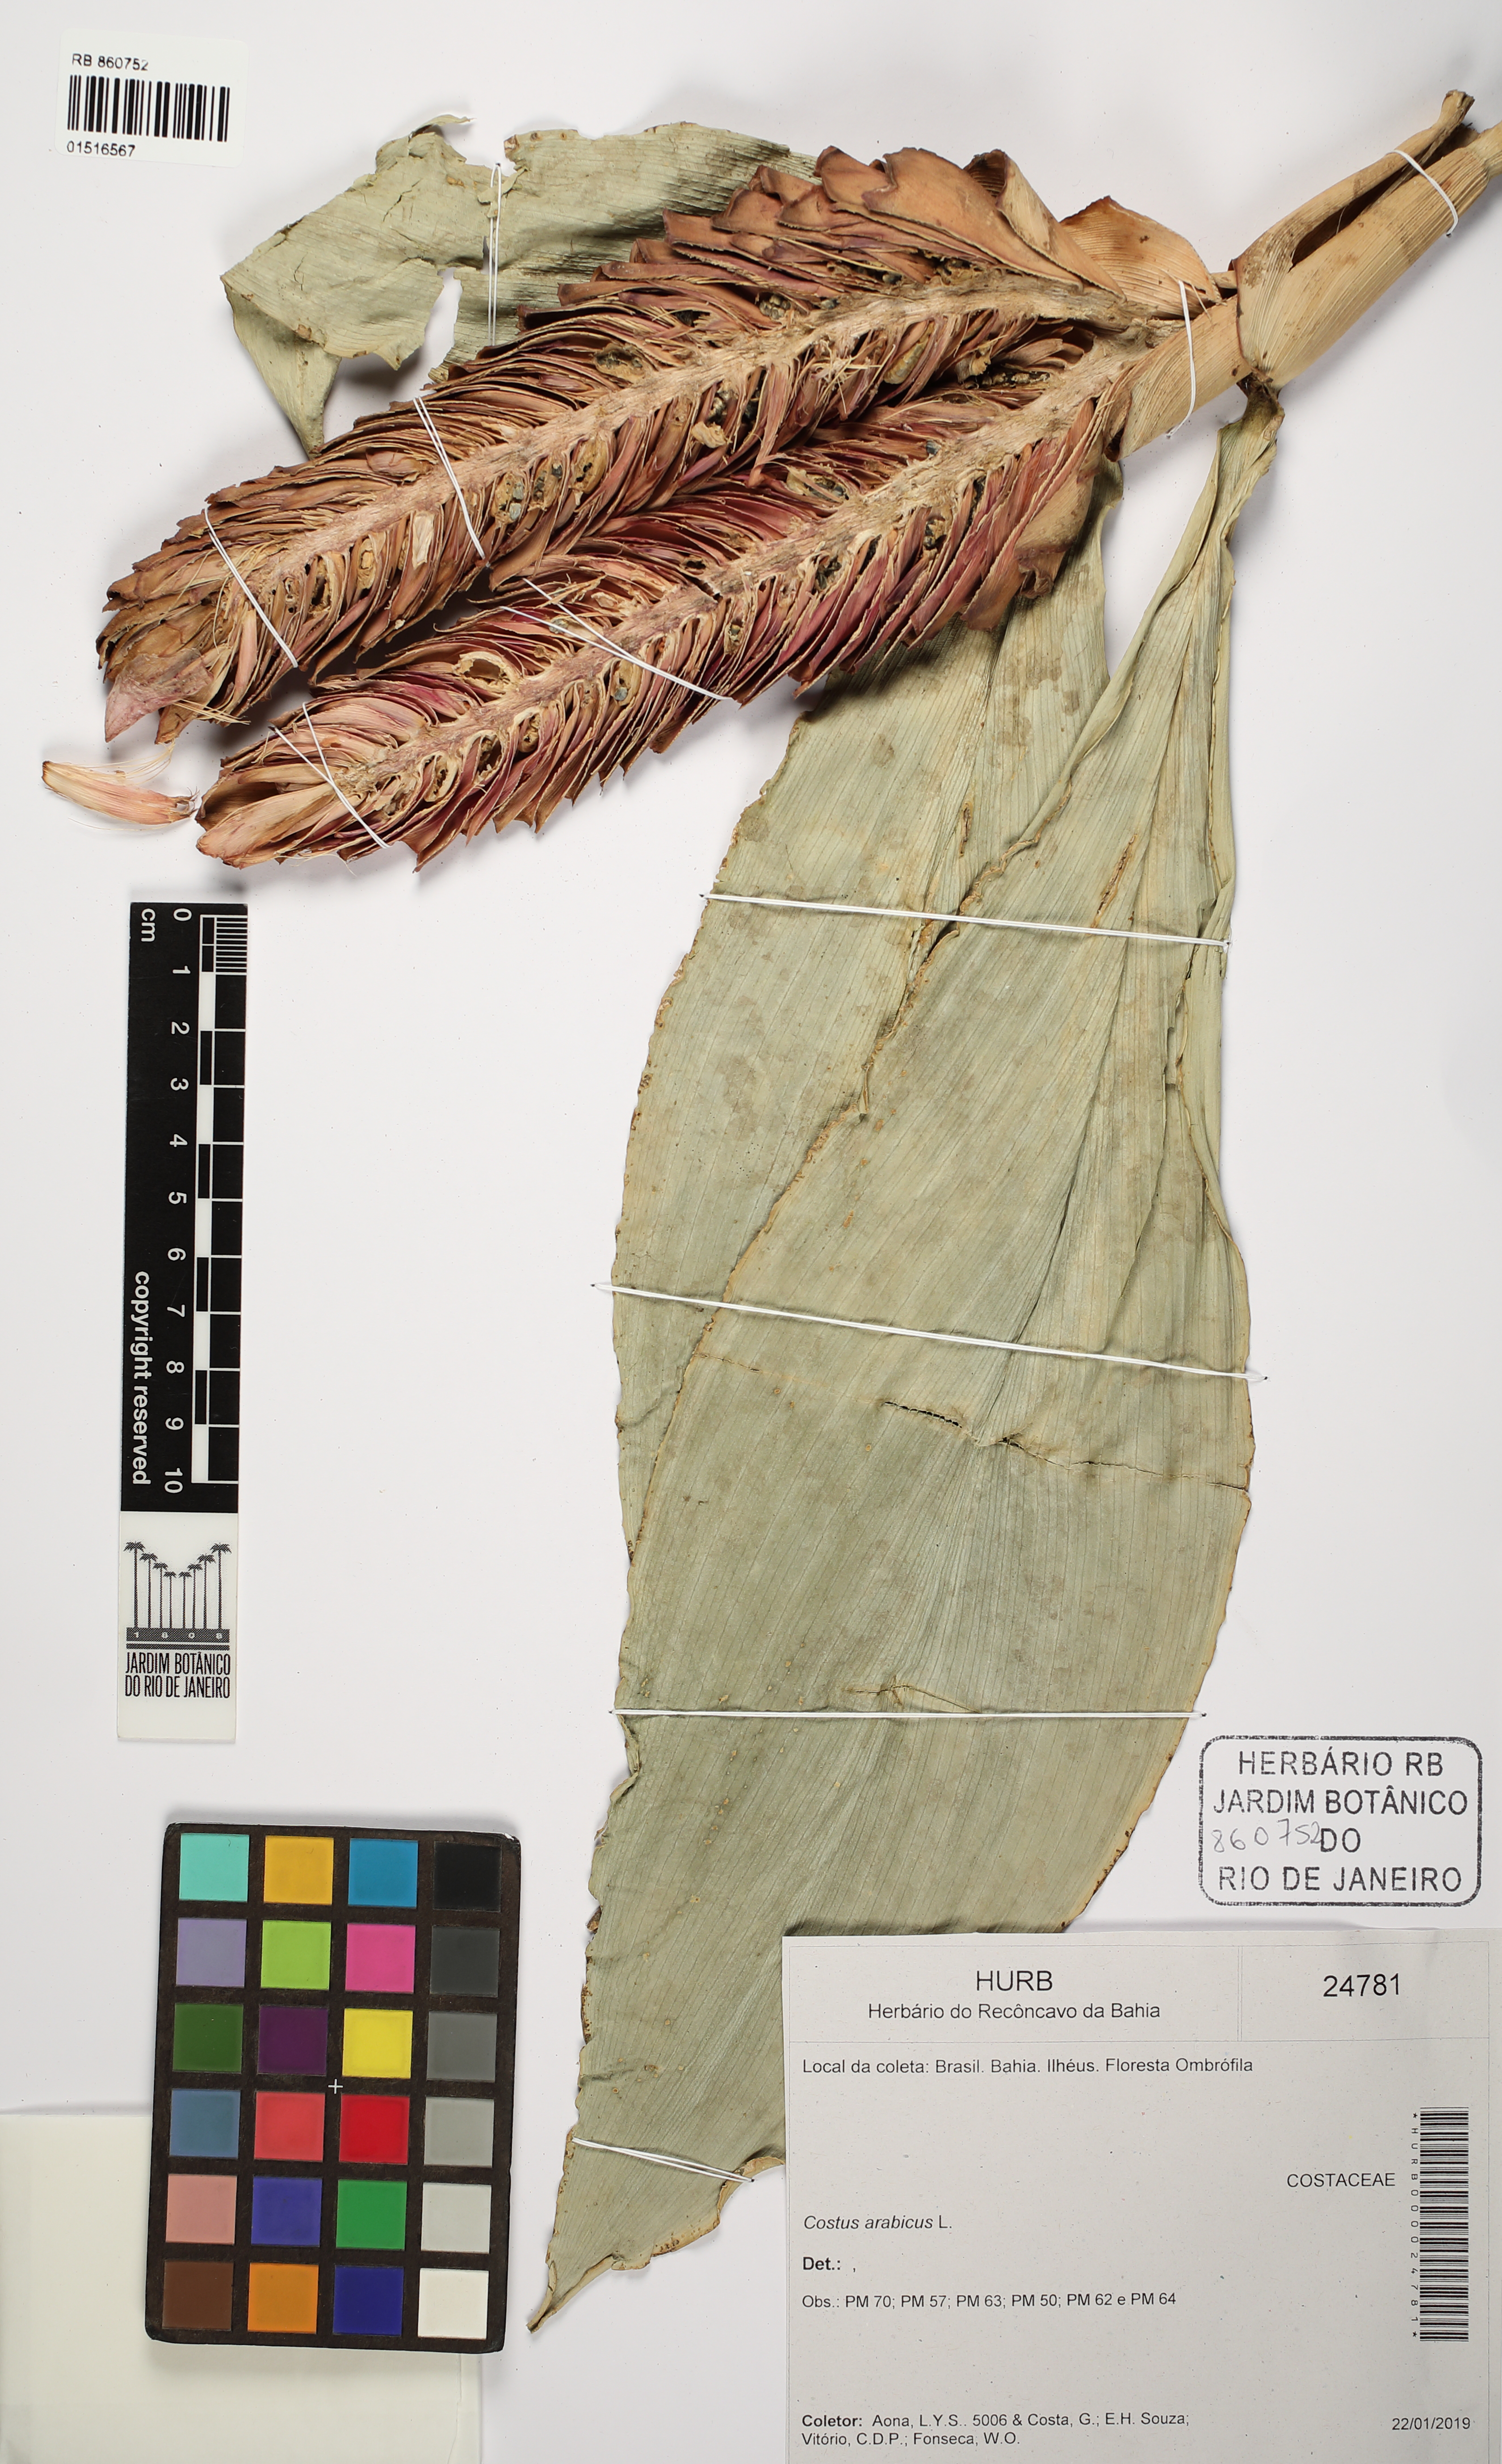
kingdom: Plantae
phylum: Tracheophyta
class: Liliopsida
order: Zingiberales
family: Costaceae
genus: Costus
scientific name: Costus arabicus
